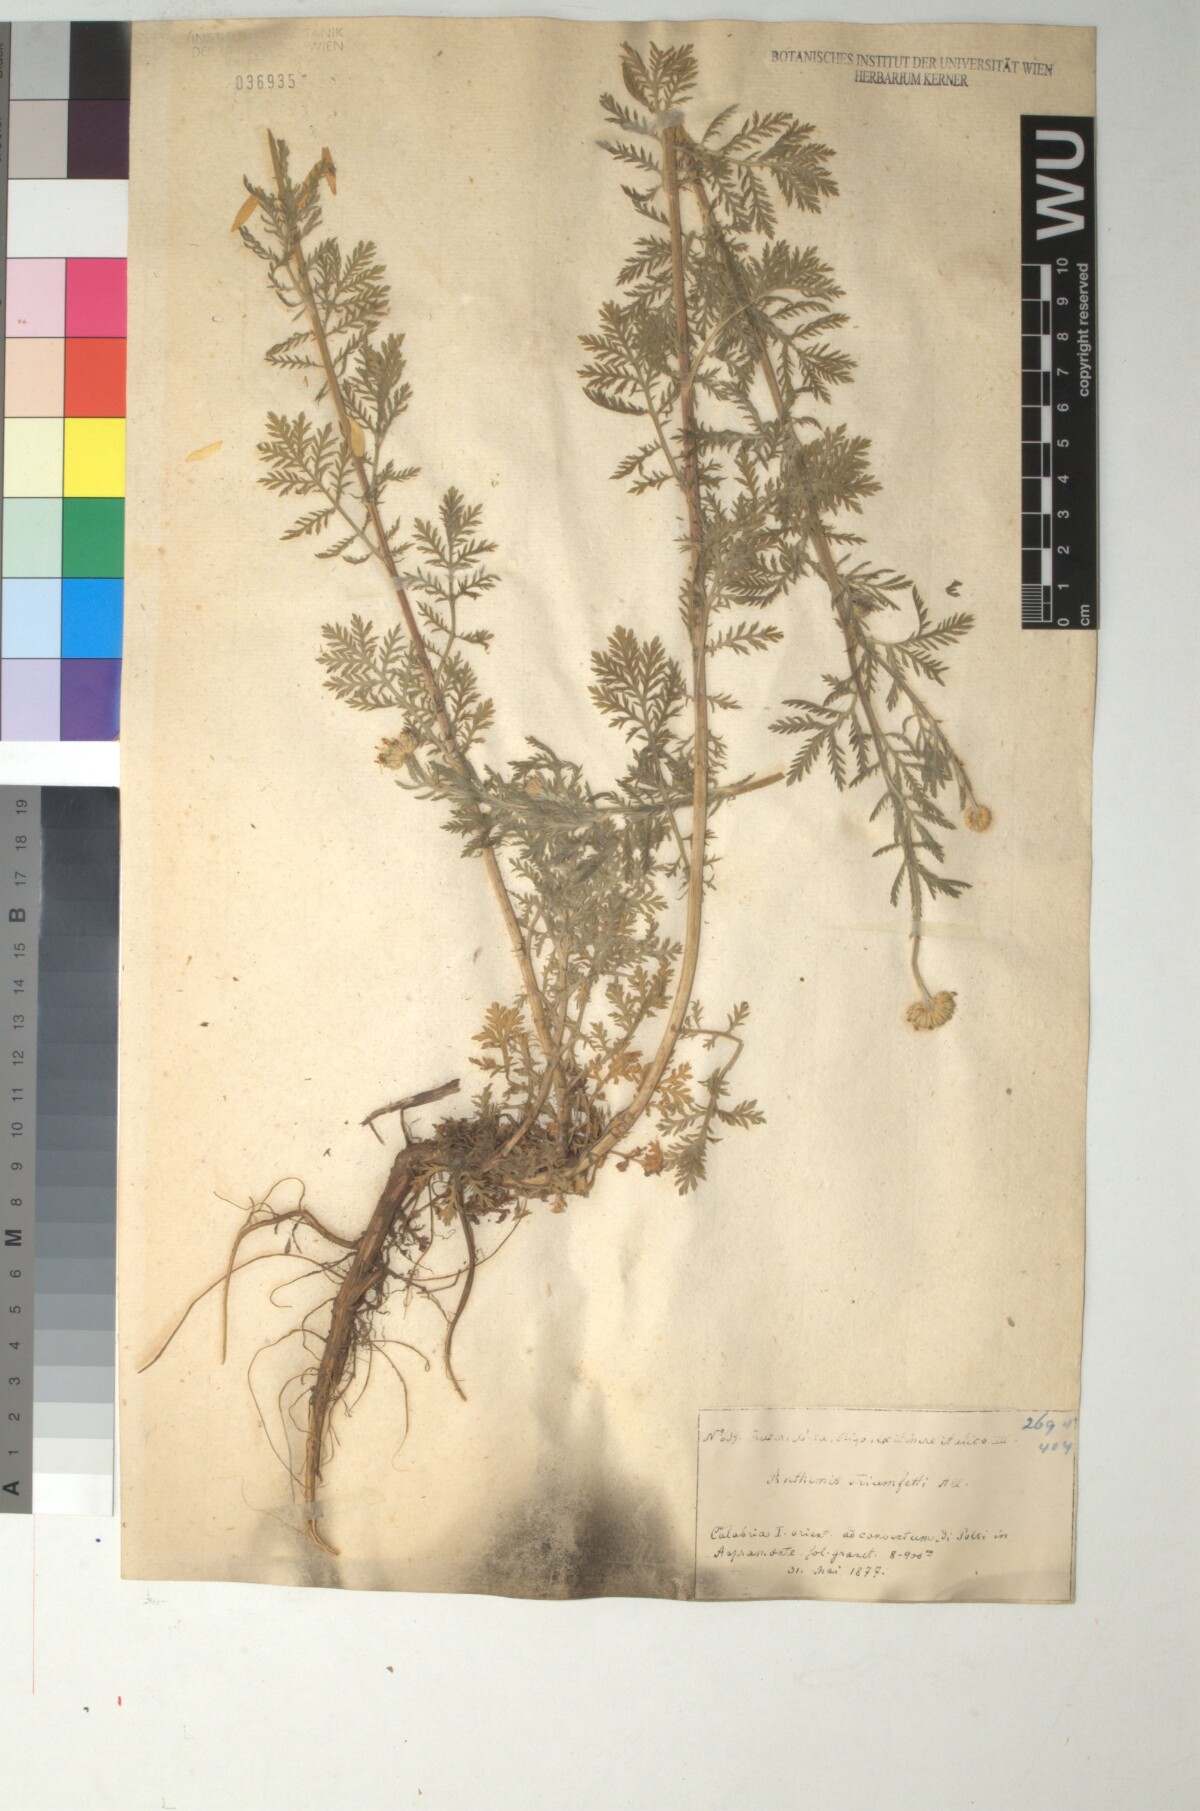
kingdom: Plantae
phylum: Tracheophyta
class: Magnoliopsida
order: Asterales
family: Asteraceae
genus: Cota
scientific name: Cota triumfetti
